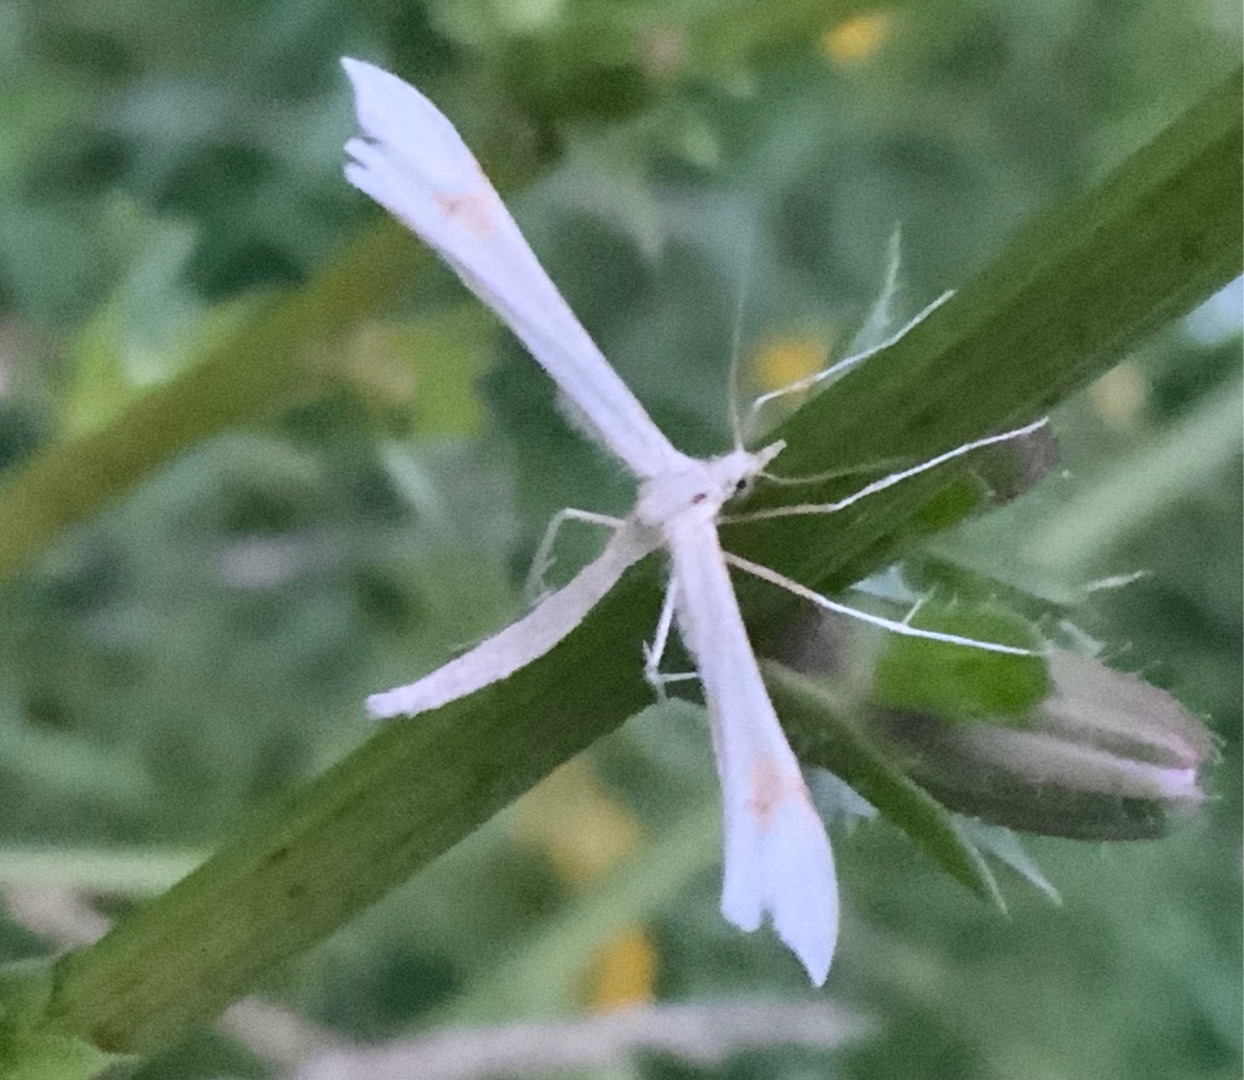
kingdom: Animalia
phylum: Arthropoda
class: Insecta
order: Lepidoptera
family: Pterophoridae
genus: Gillmeria
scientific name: Gillmeria
